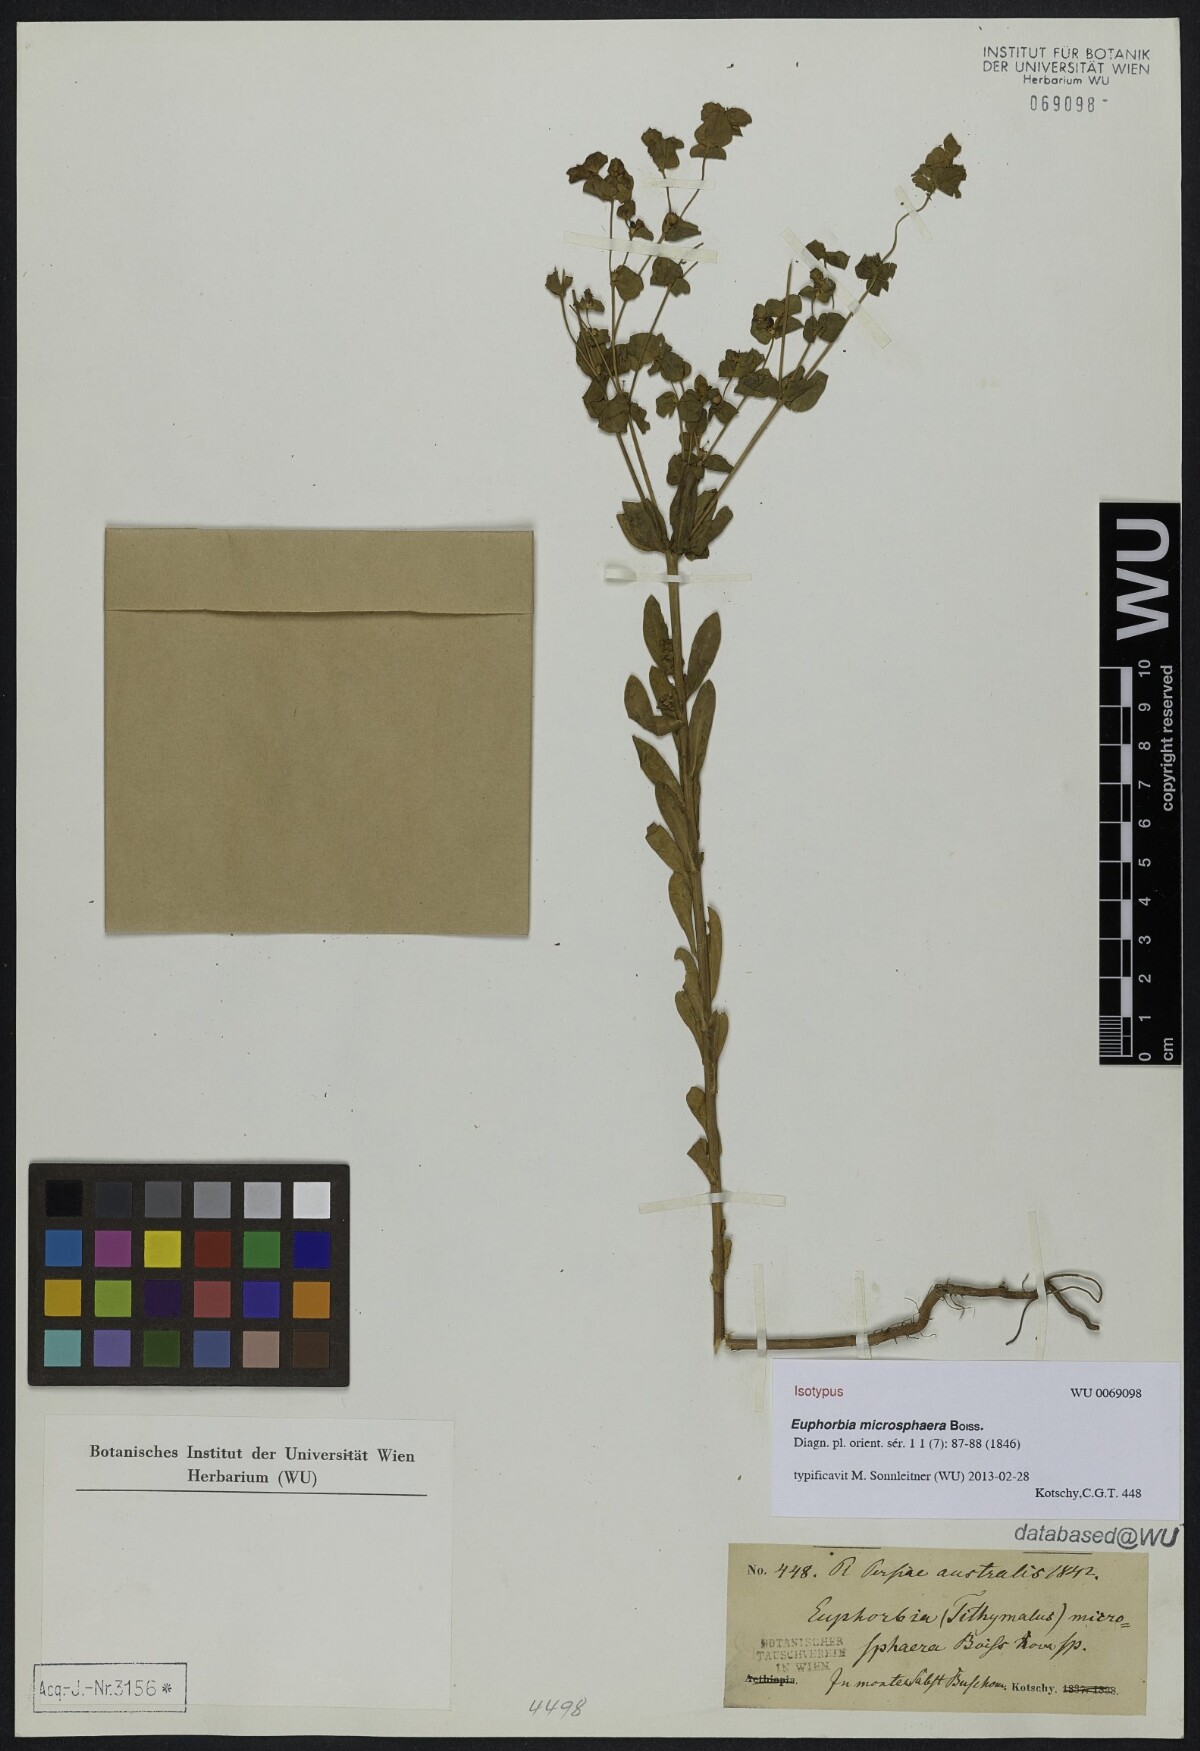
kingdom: Plantae
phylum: Tracheophyta
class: Magnoliopsida
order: Malpighiales
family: Euphorbiaceae
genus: Euphorbia
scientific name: Euphorbia microsphaera
